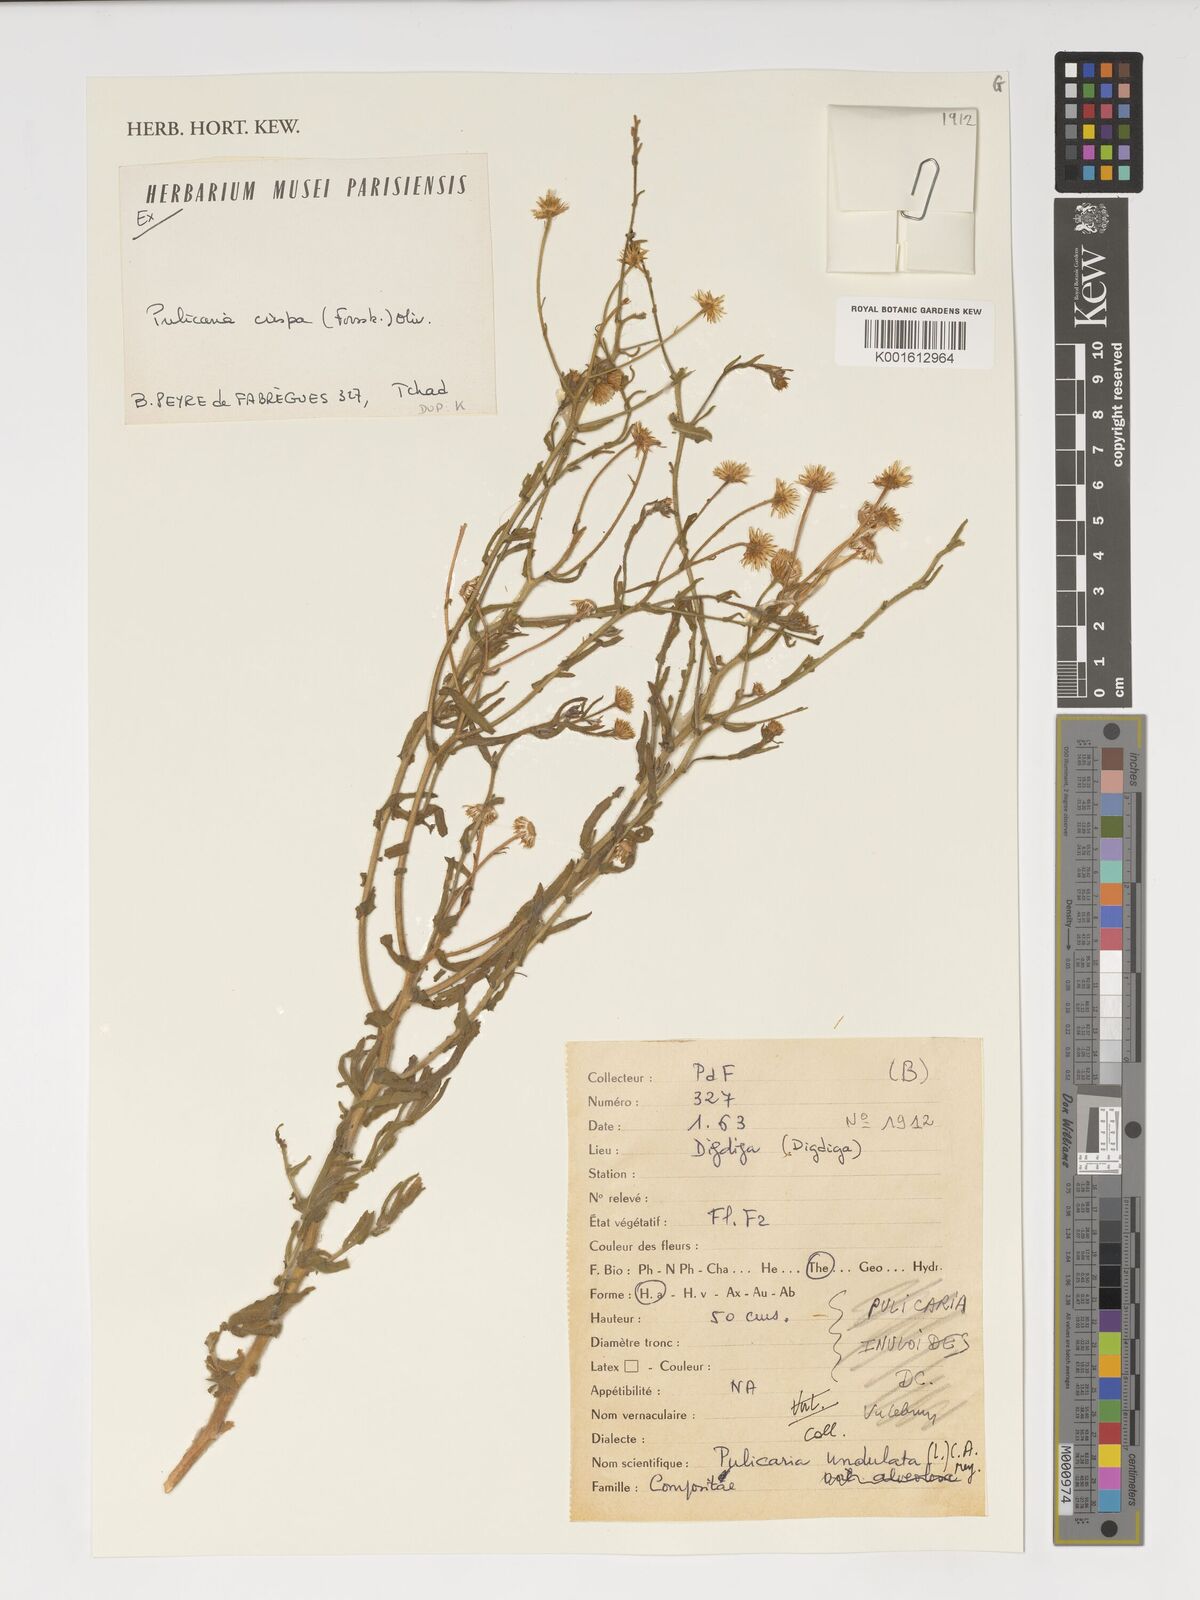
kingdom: Plantae
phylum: Tracheophyta
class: Magnoliopsida
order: Asterales
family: Asteraceae
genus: Pulicaria
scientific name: Pulicaria undulata
